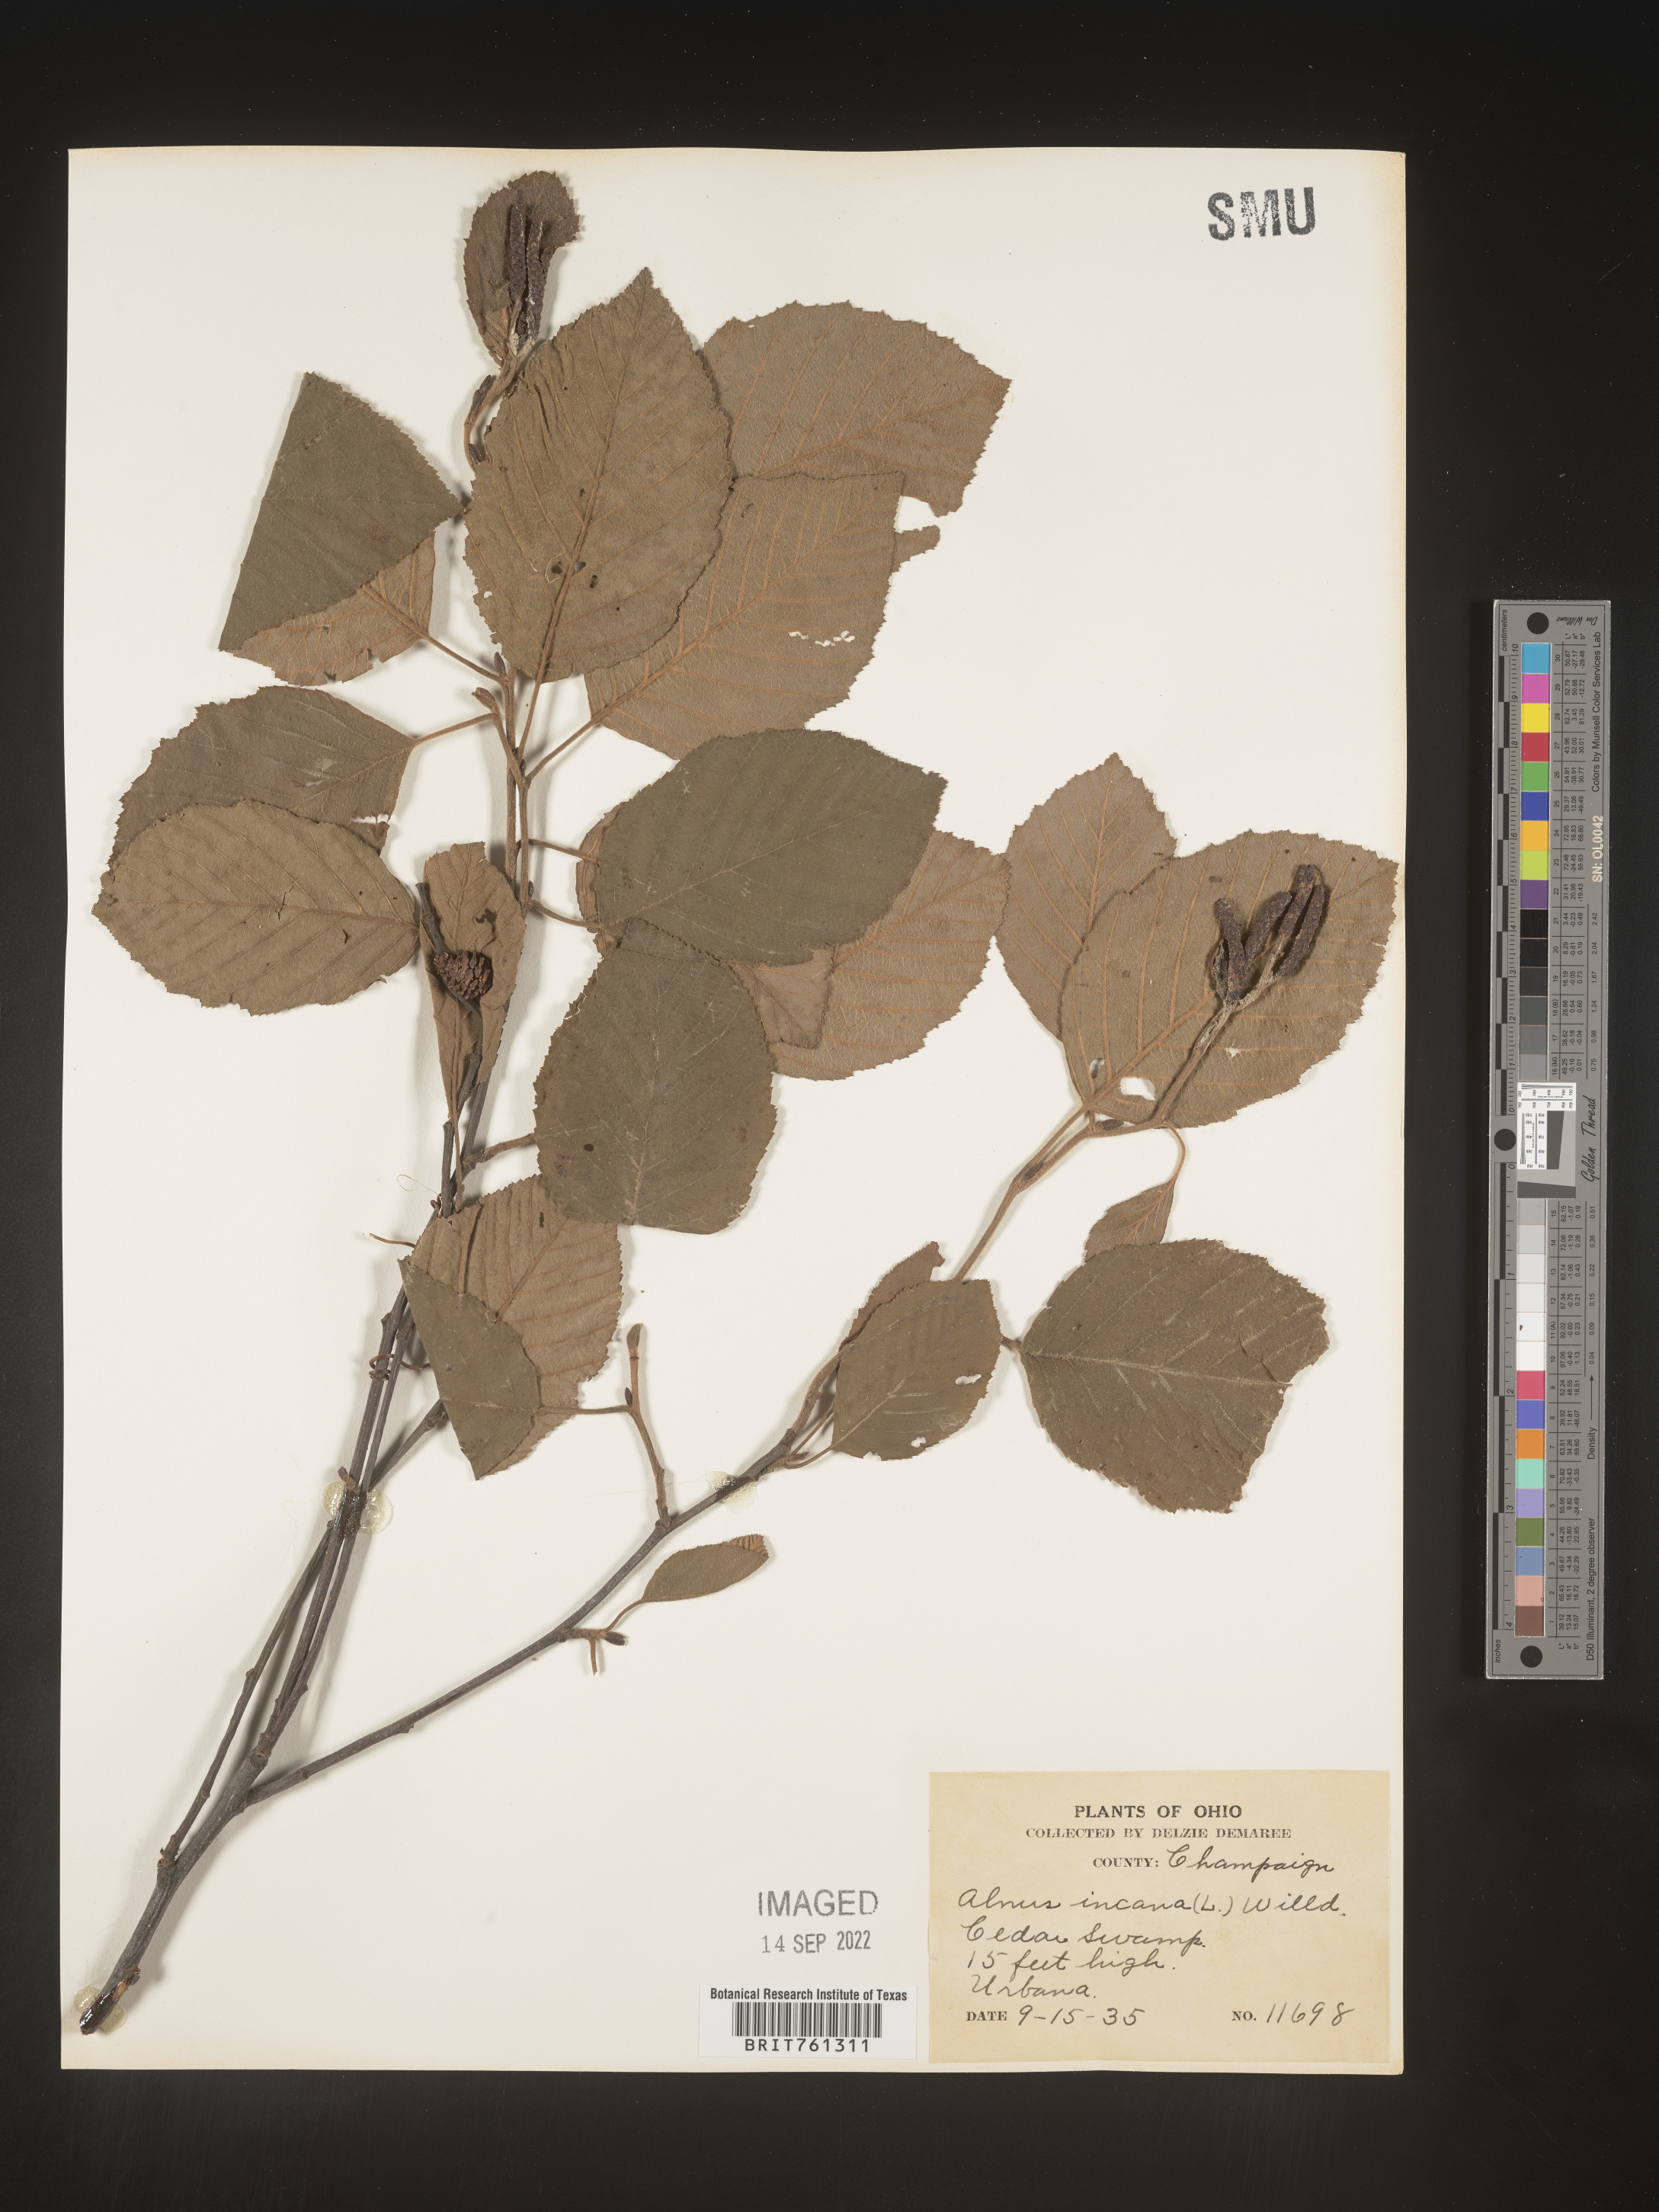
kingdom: Plantae
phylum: Tracheophyta
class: Magnoliopsida
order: Fagales
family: Betulaceae
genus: Alnus
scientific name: Alnus incana
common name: Grey alder
